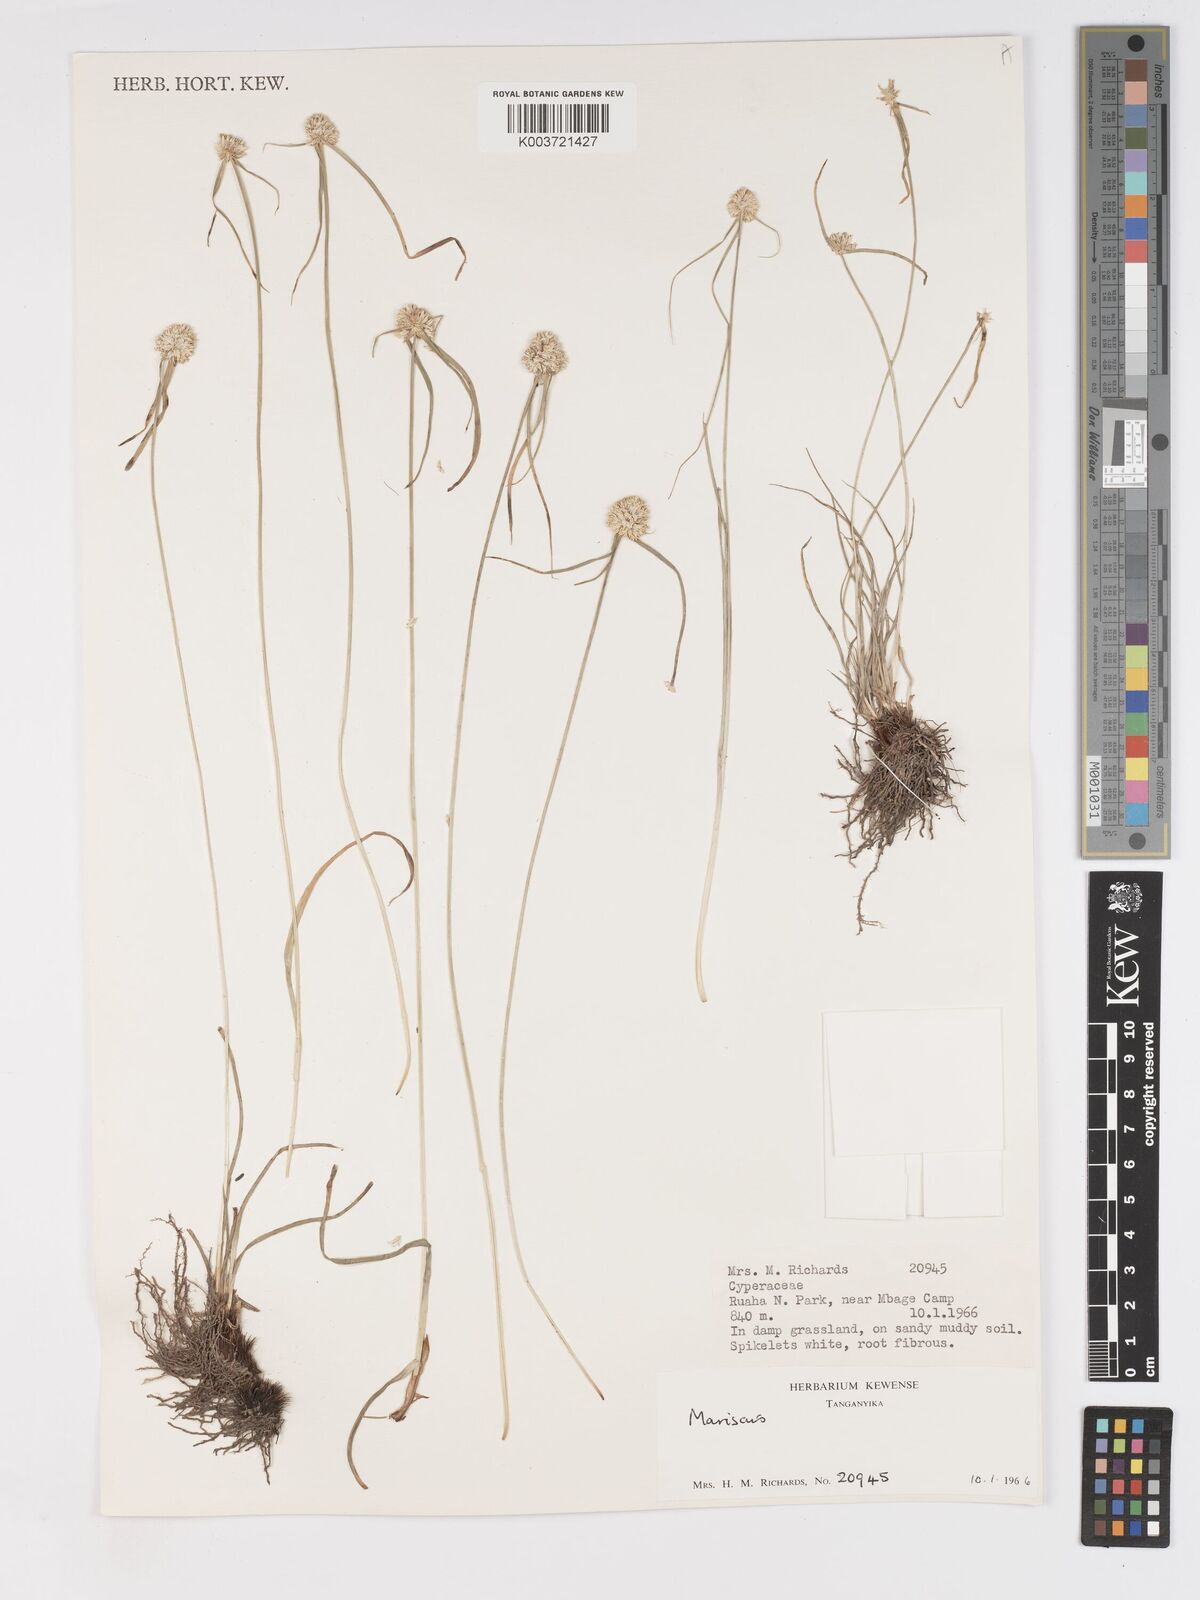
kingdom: Plantae
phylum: Tracheophyta
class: Liliopsida
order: Poales
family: Cyperaceae
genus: Cyperus
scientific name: Cyperus mollipes
